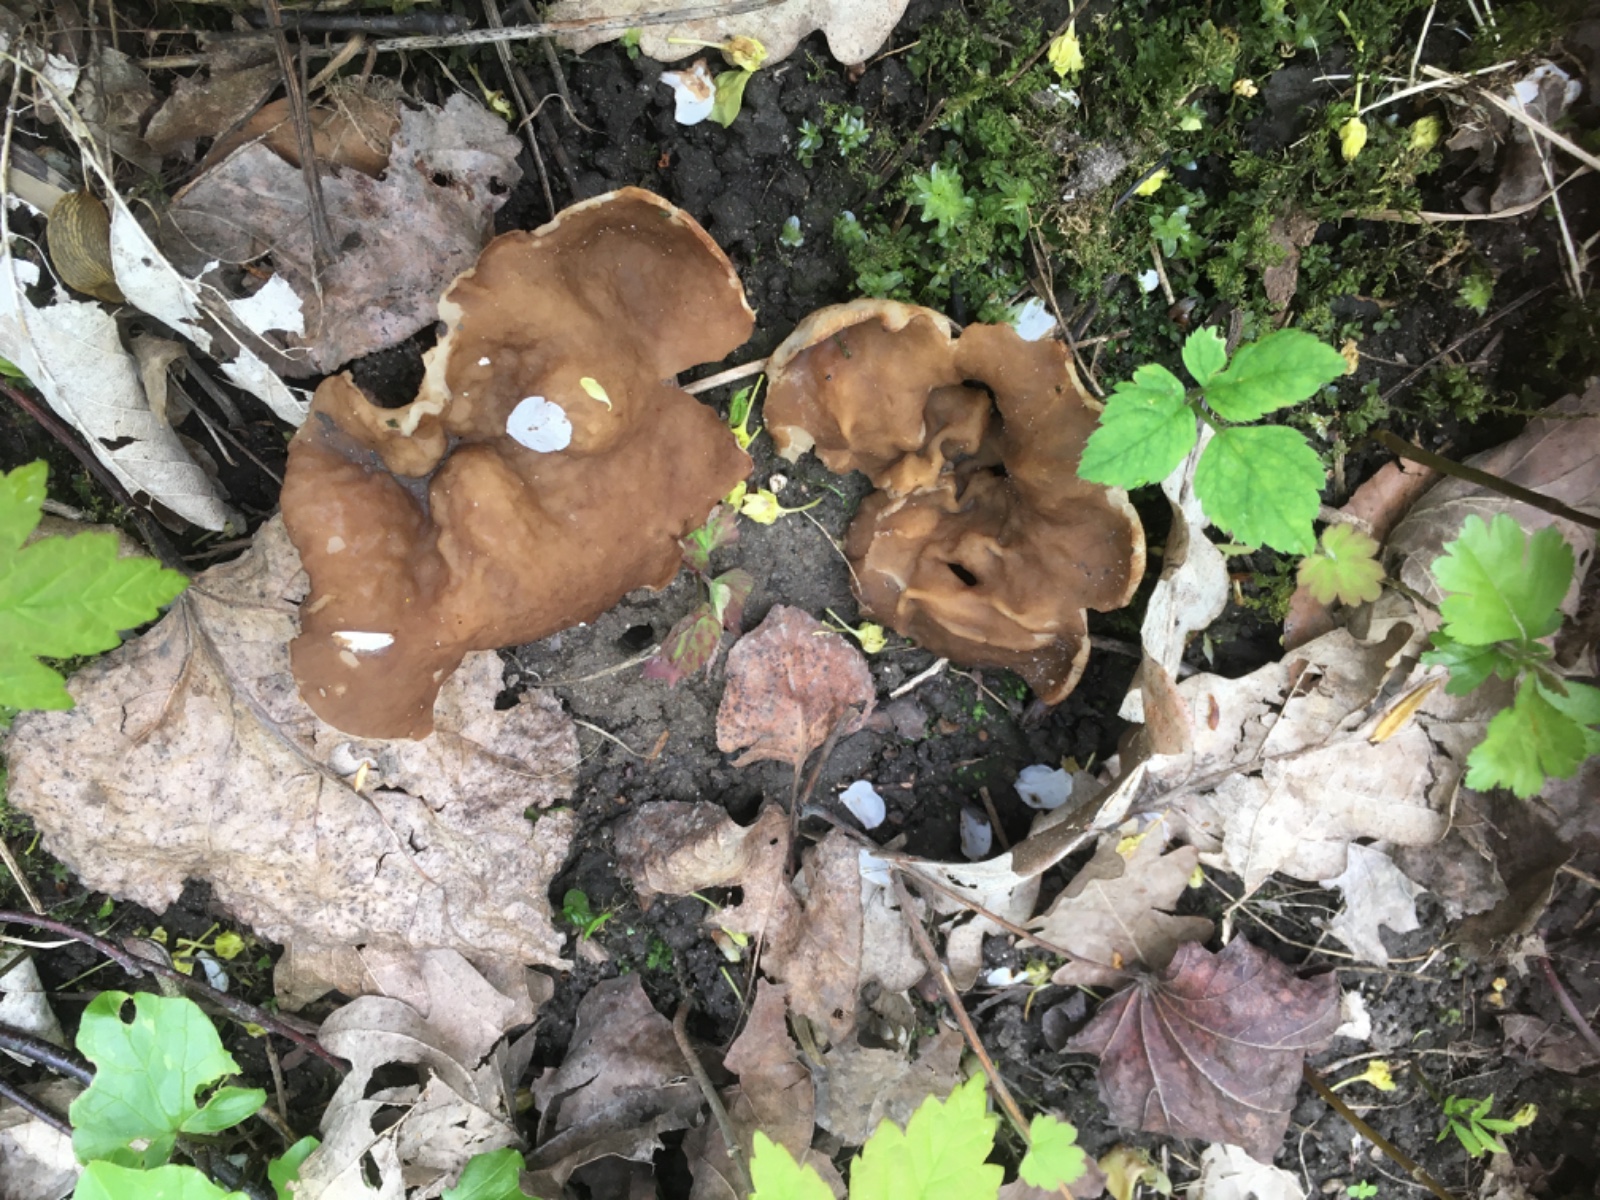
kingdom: Fungi
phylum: Ascomycota
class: Pezizomycetes
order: Pezizales
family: Morchellaceae
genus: Disciotis
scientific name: Disciotis venosa
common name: klor-bægermorkel
